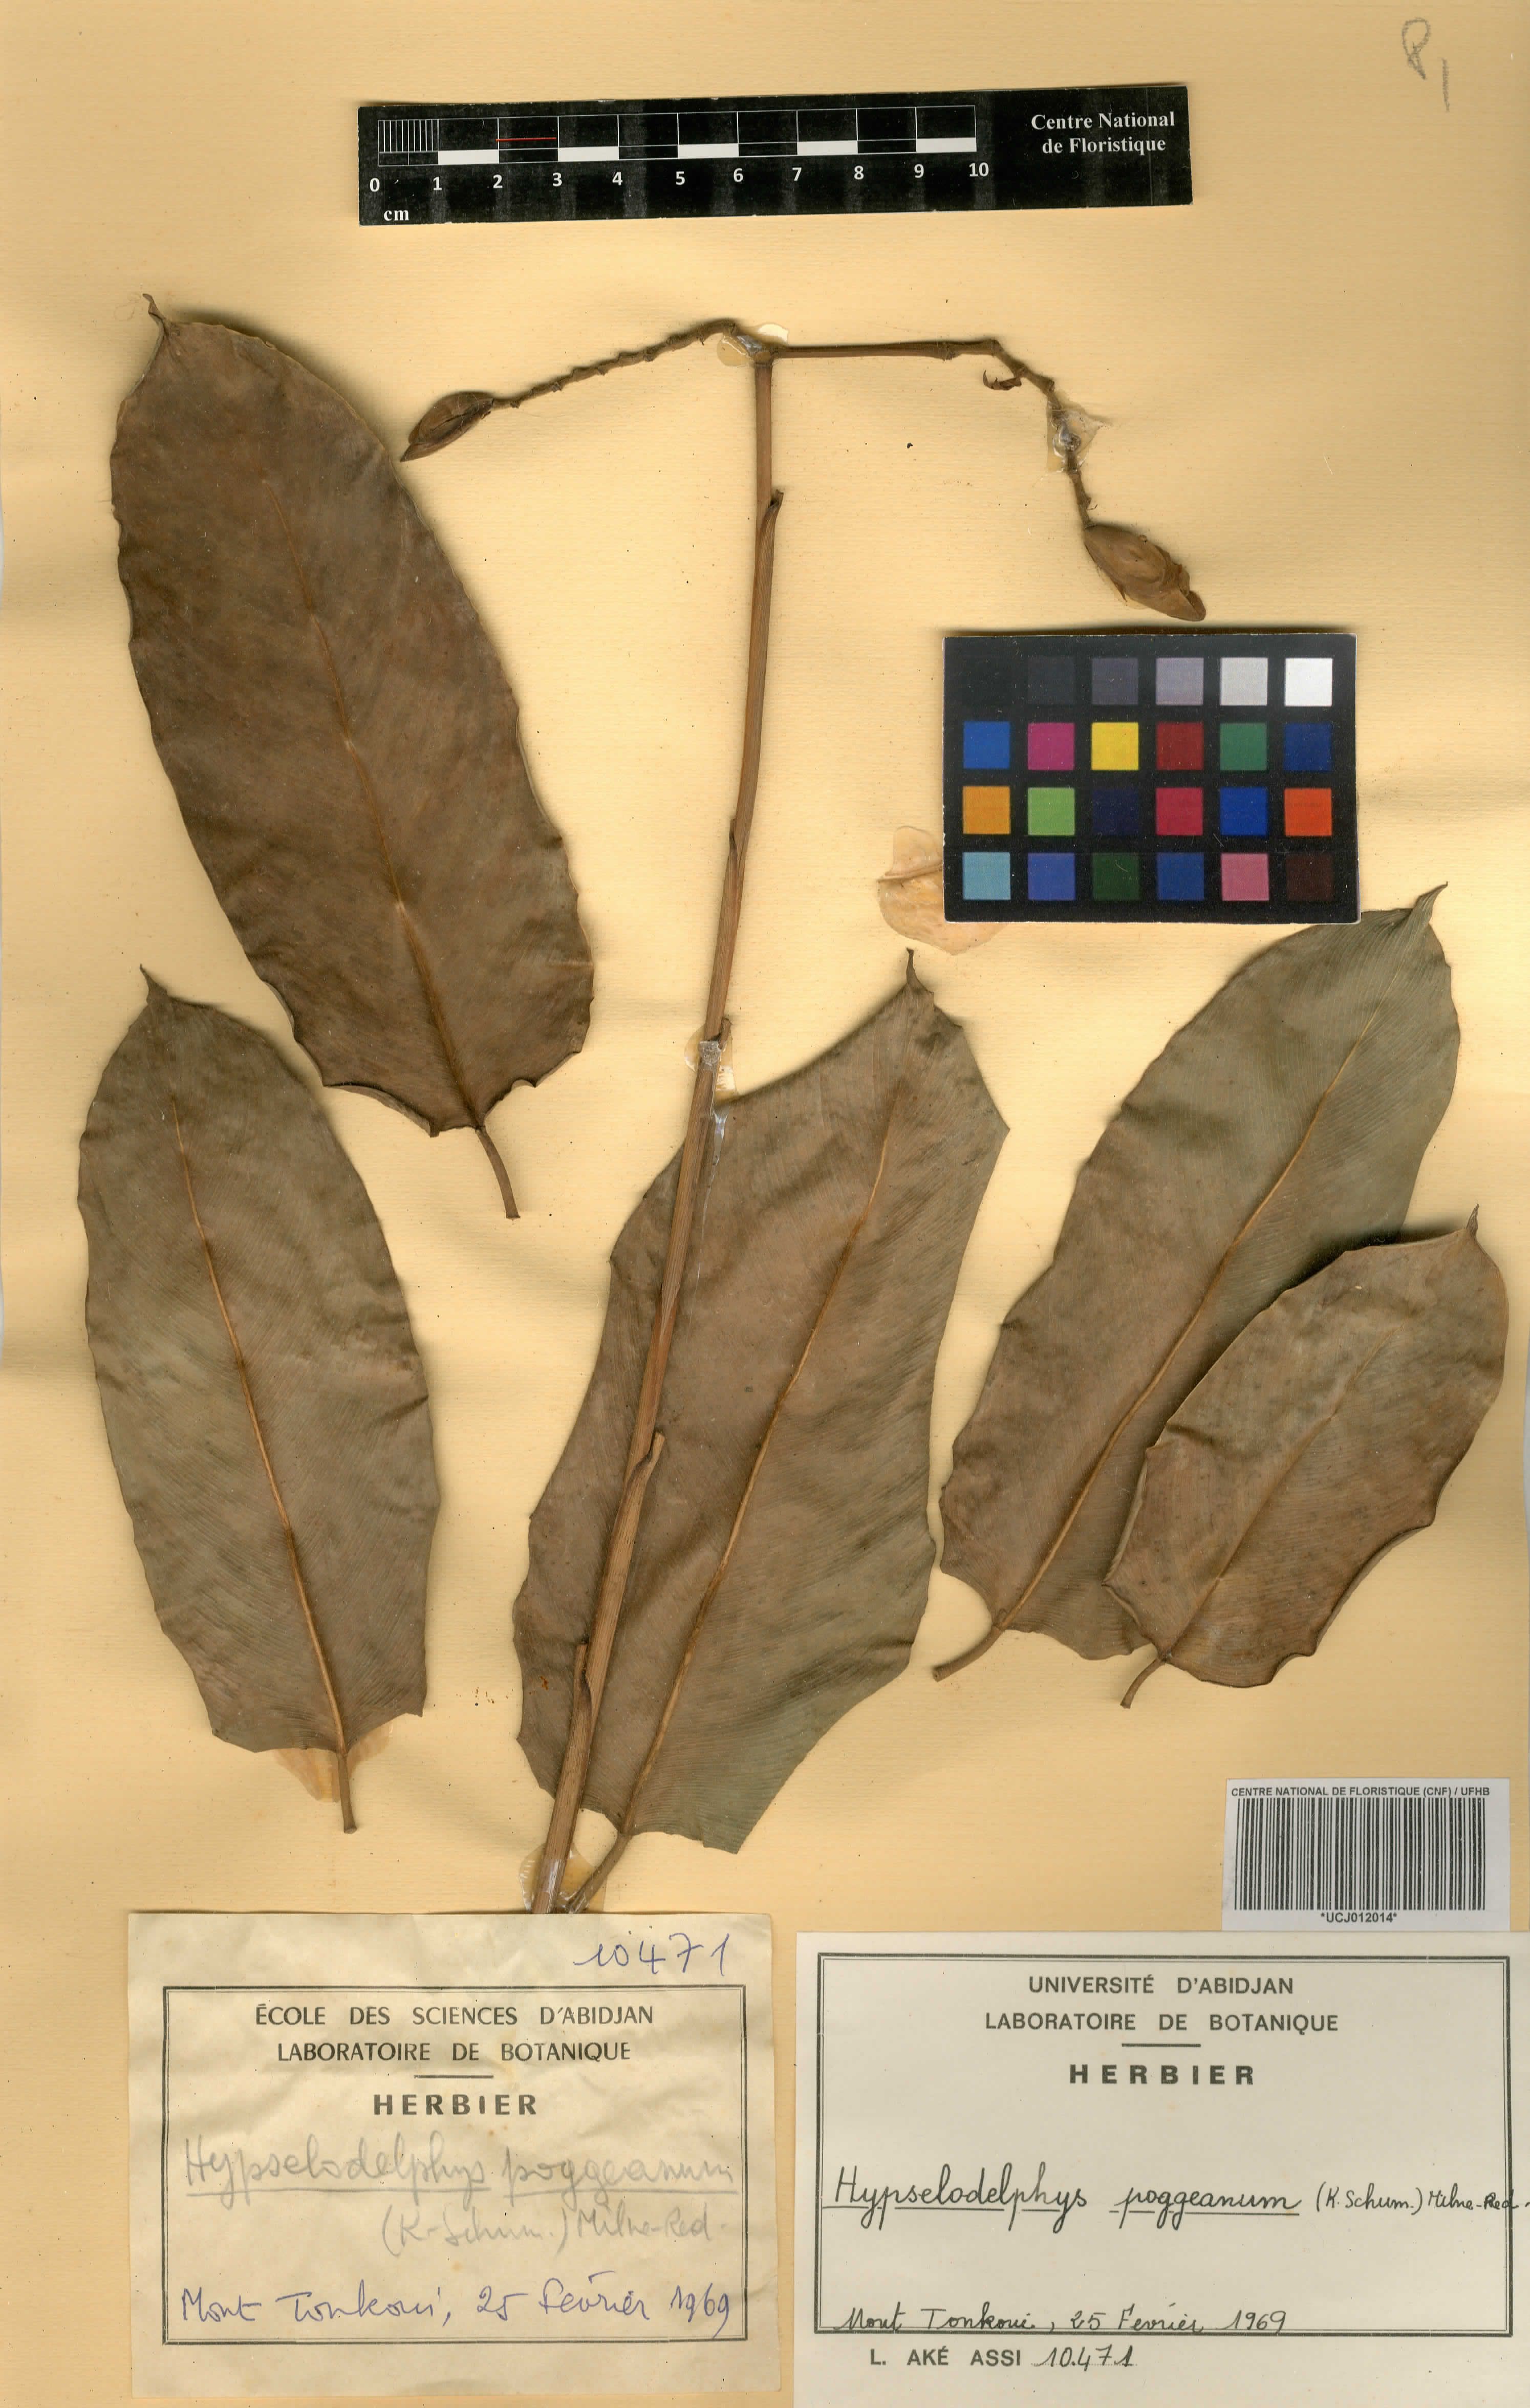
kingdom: Plantae
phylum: Tracheophyta
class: Liliopsida
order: Zingiberales
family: Marantaceae
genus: Hypselodelphys
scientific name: Hypselodelphys poggeana
